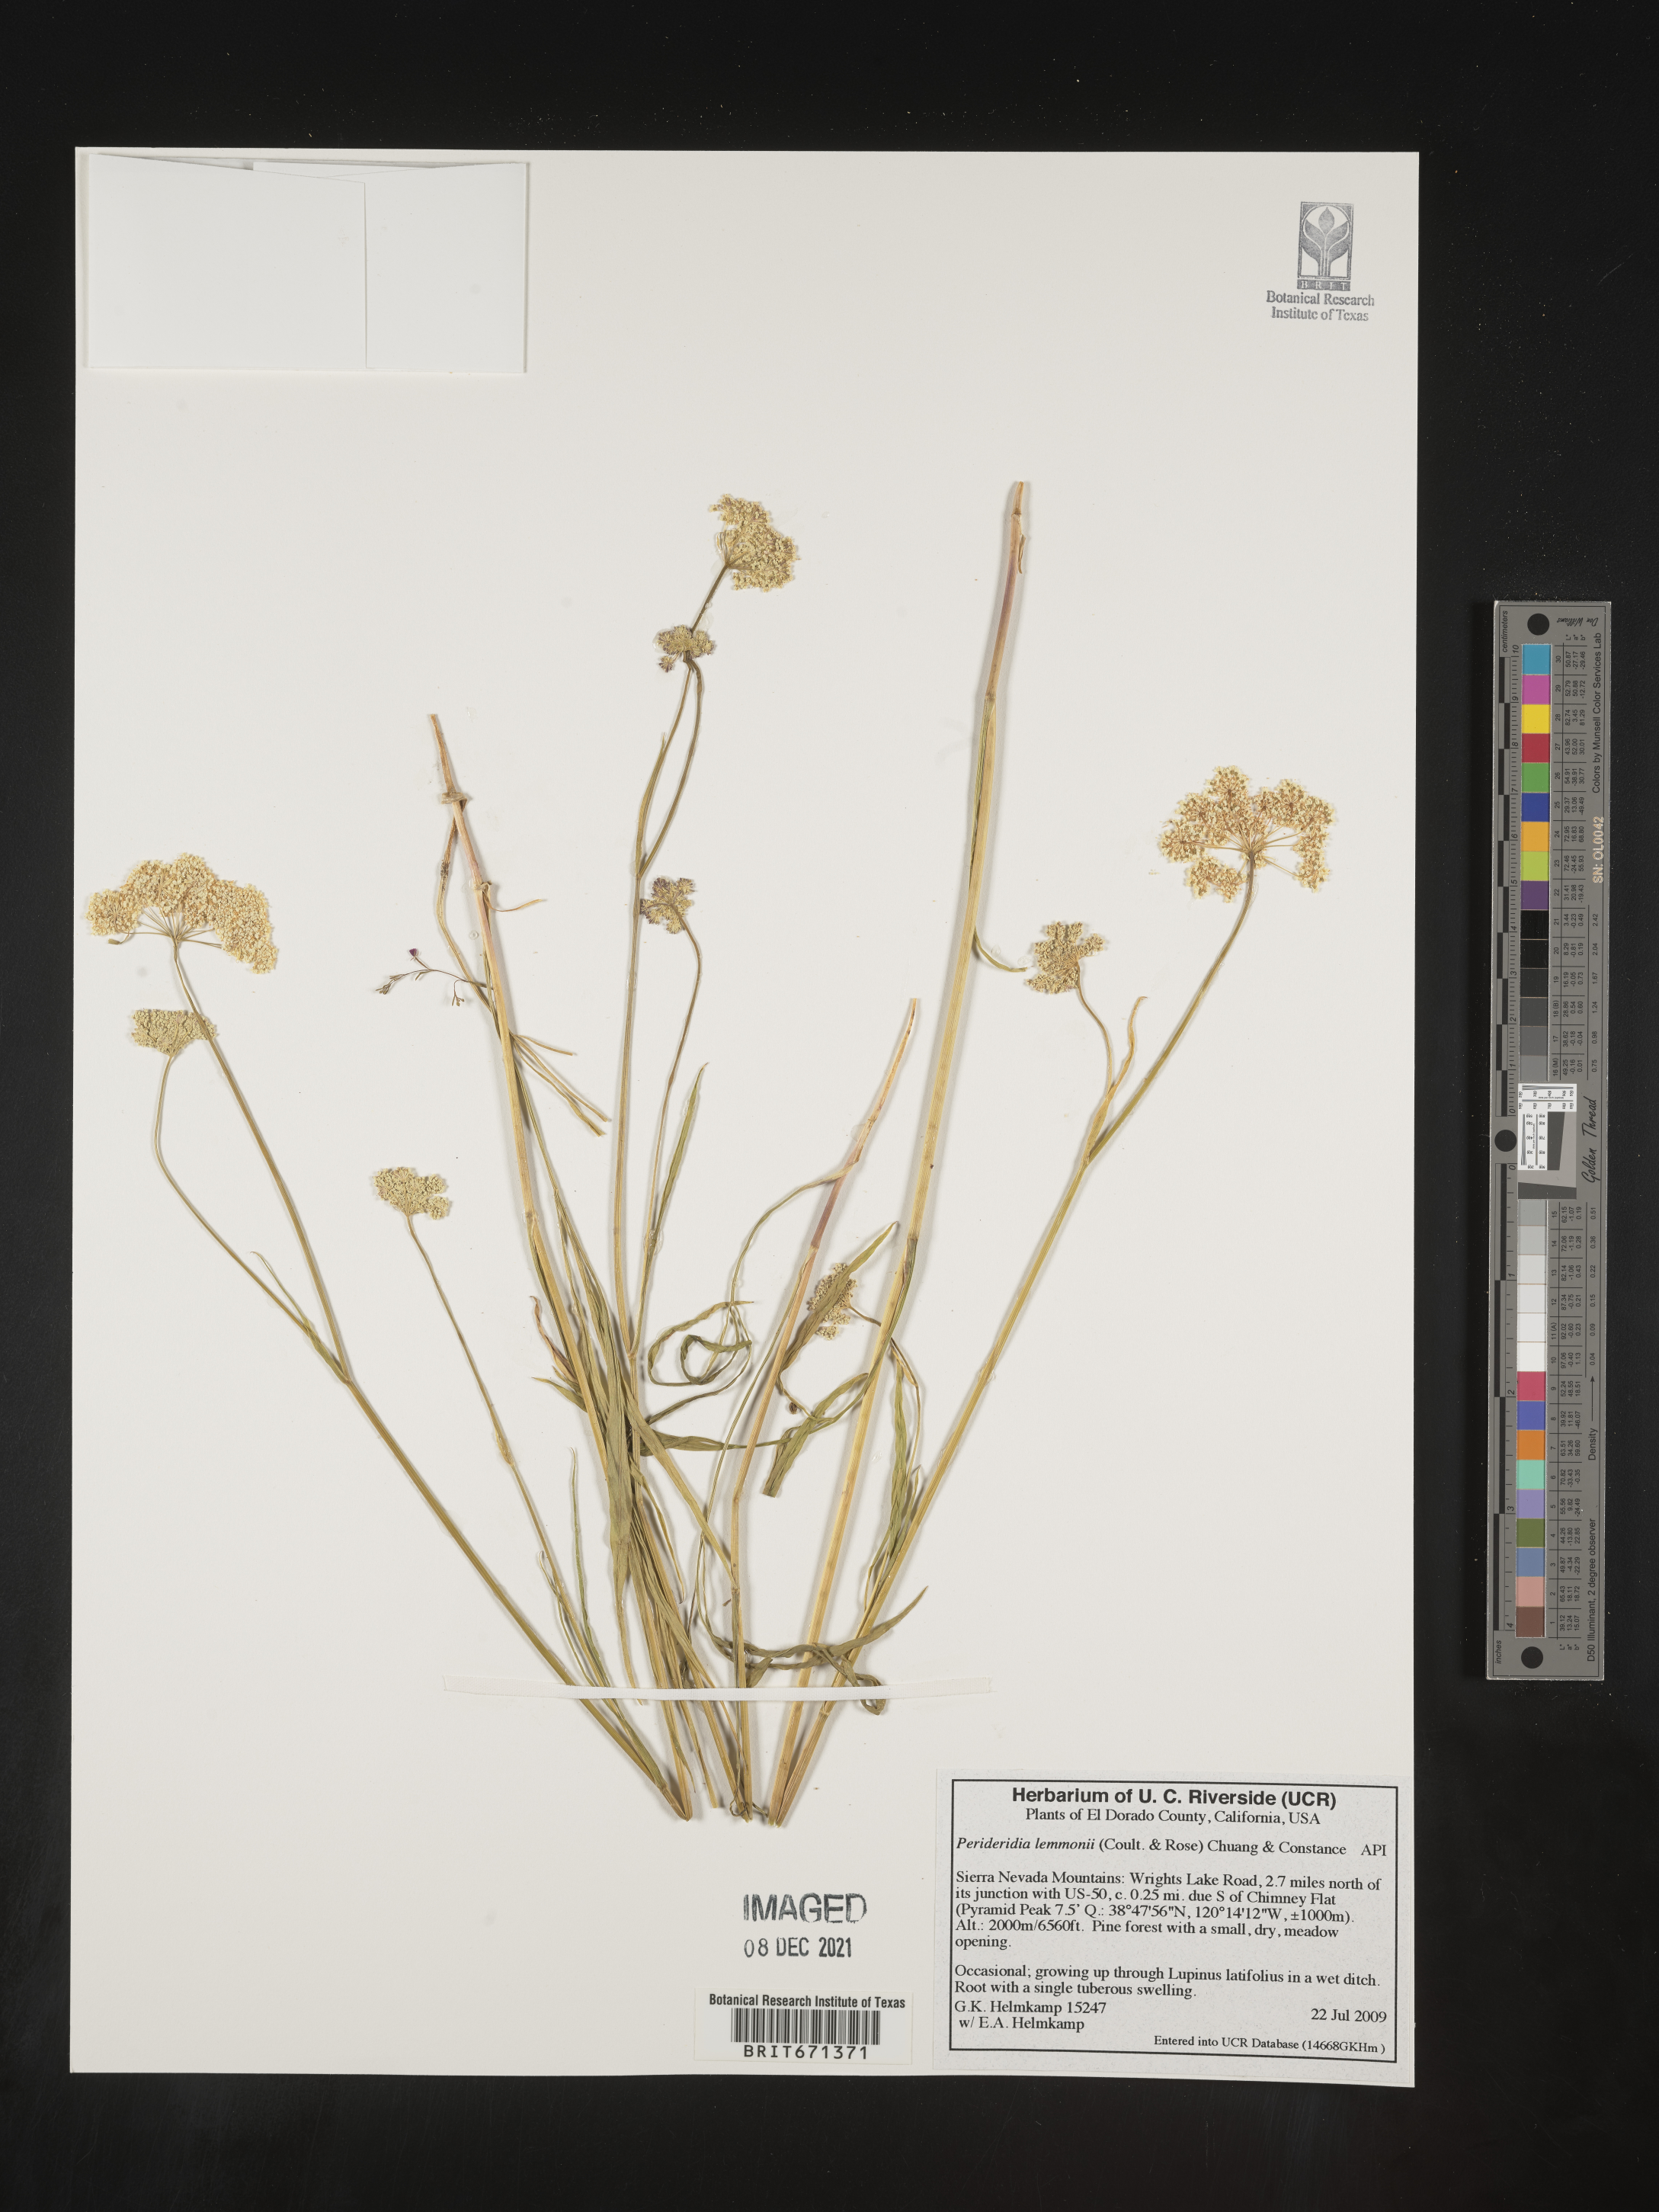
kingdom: Plantae
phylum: Tracheophyta
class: Magnoliopsida
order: Apiales
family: Apiaceae
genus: Perideridia
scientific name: Perideridia lemmonii
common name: Tuni
